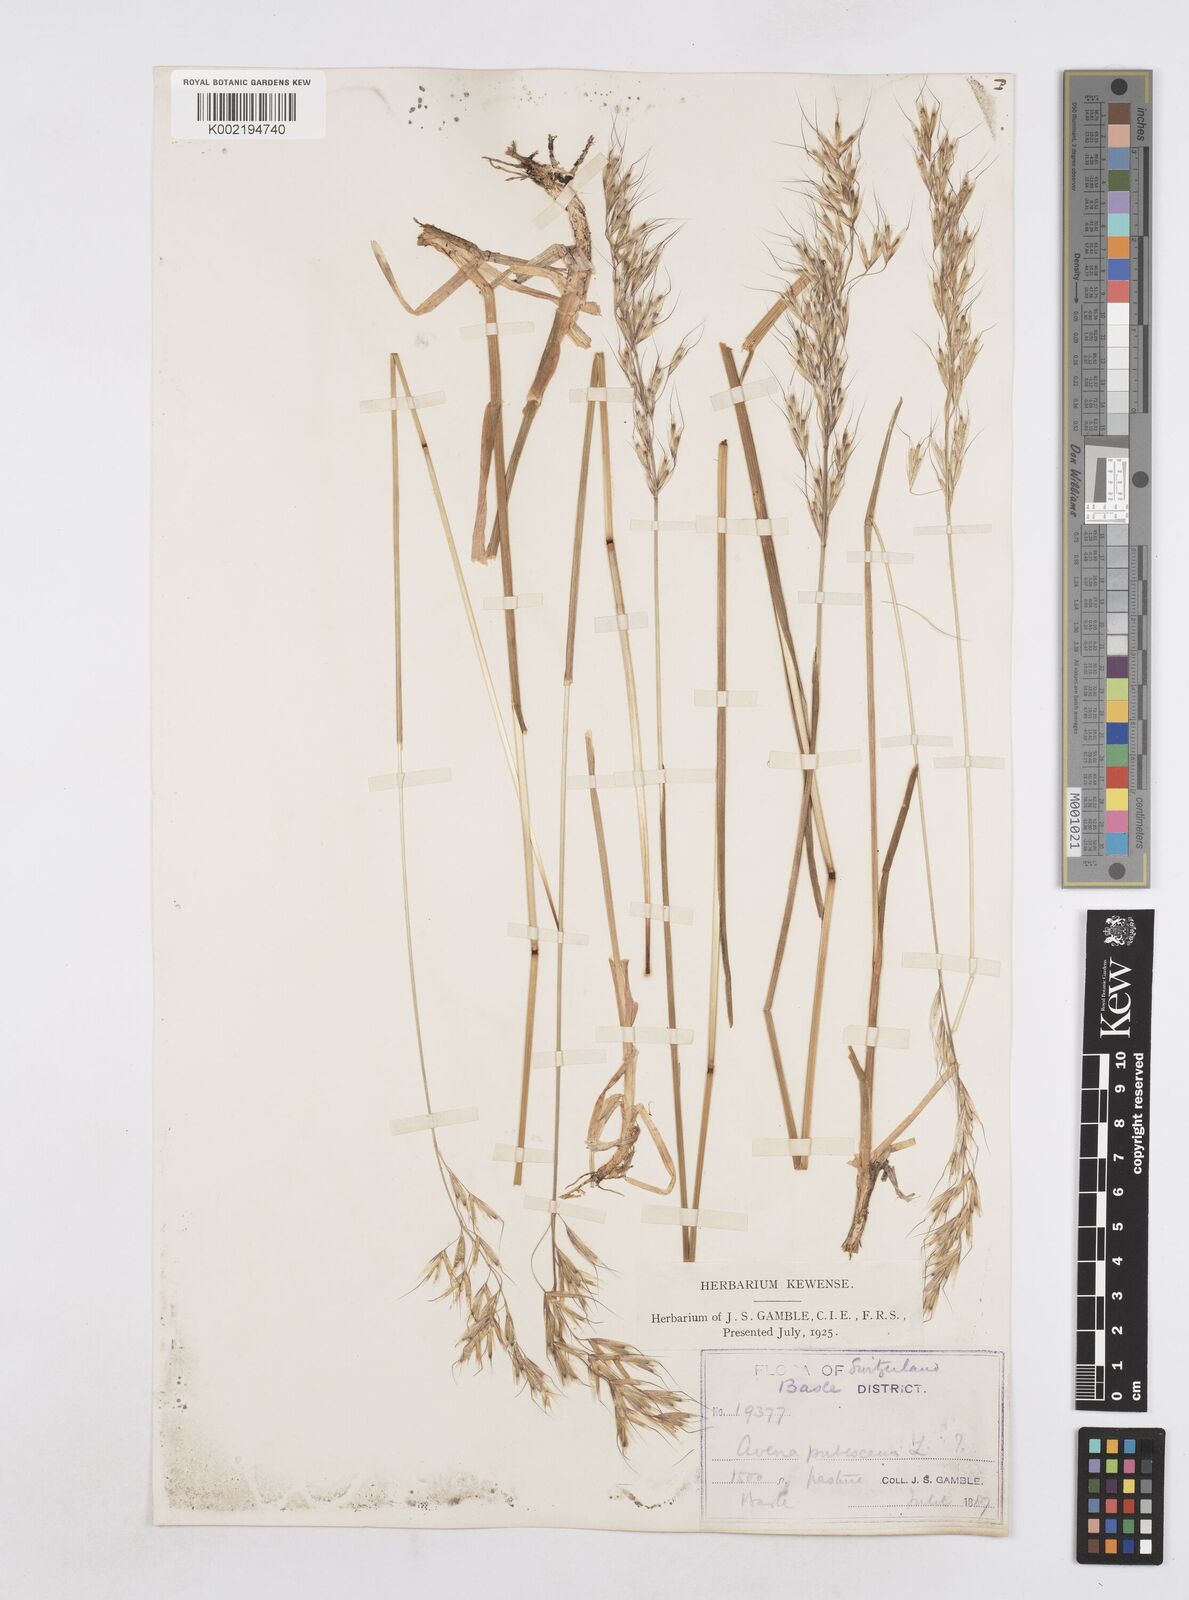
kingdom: Plantae
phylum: Tracheophyta
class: Liliopsida
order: Poales
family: Poaceae
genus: Avenula
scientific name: Avenula pubescens
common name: Downy alpine oatgrass
